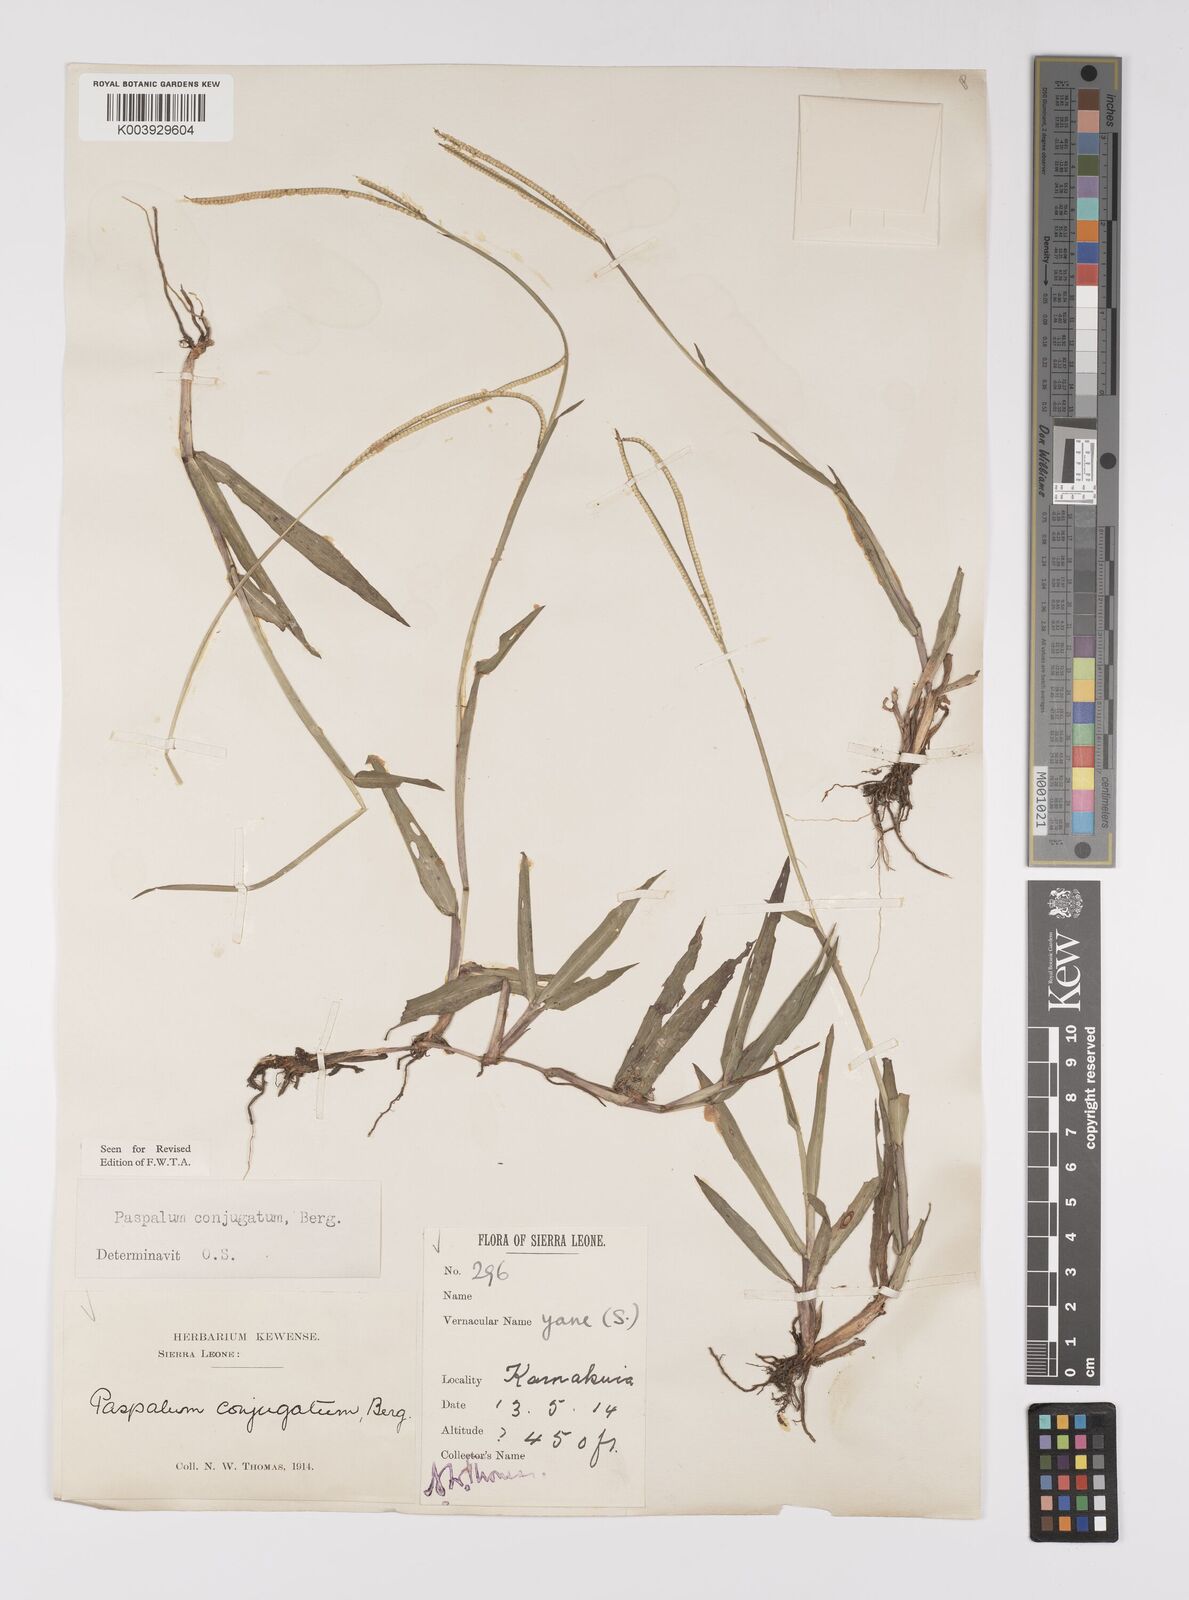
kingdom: Plantae
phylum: Tracheophyta
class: Liliopsida
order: Poales
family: Poaceae
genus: Paspalum
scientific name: Paspalum conjugatum
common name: Hilograss
